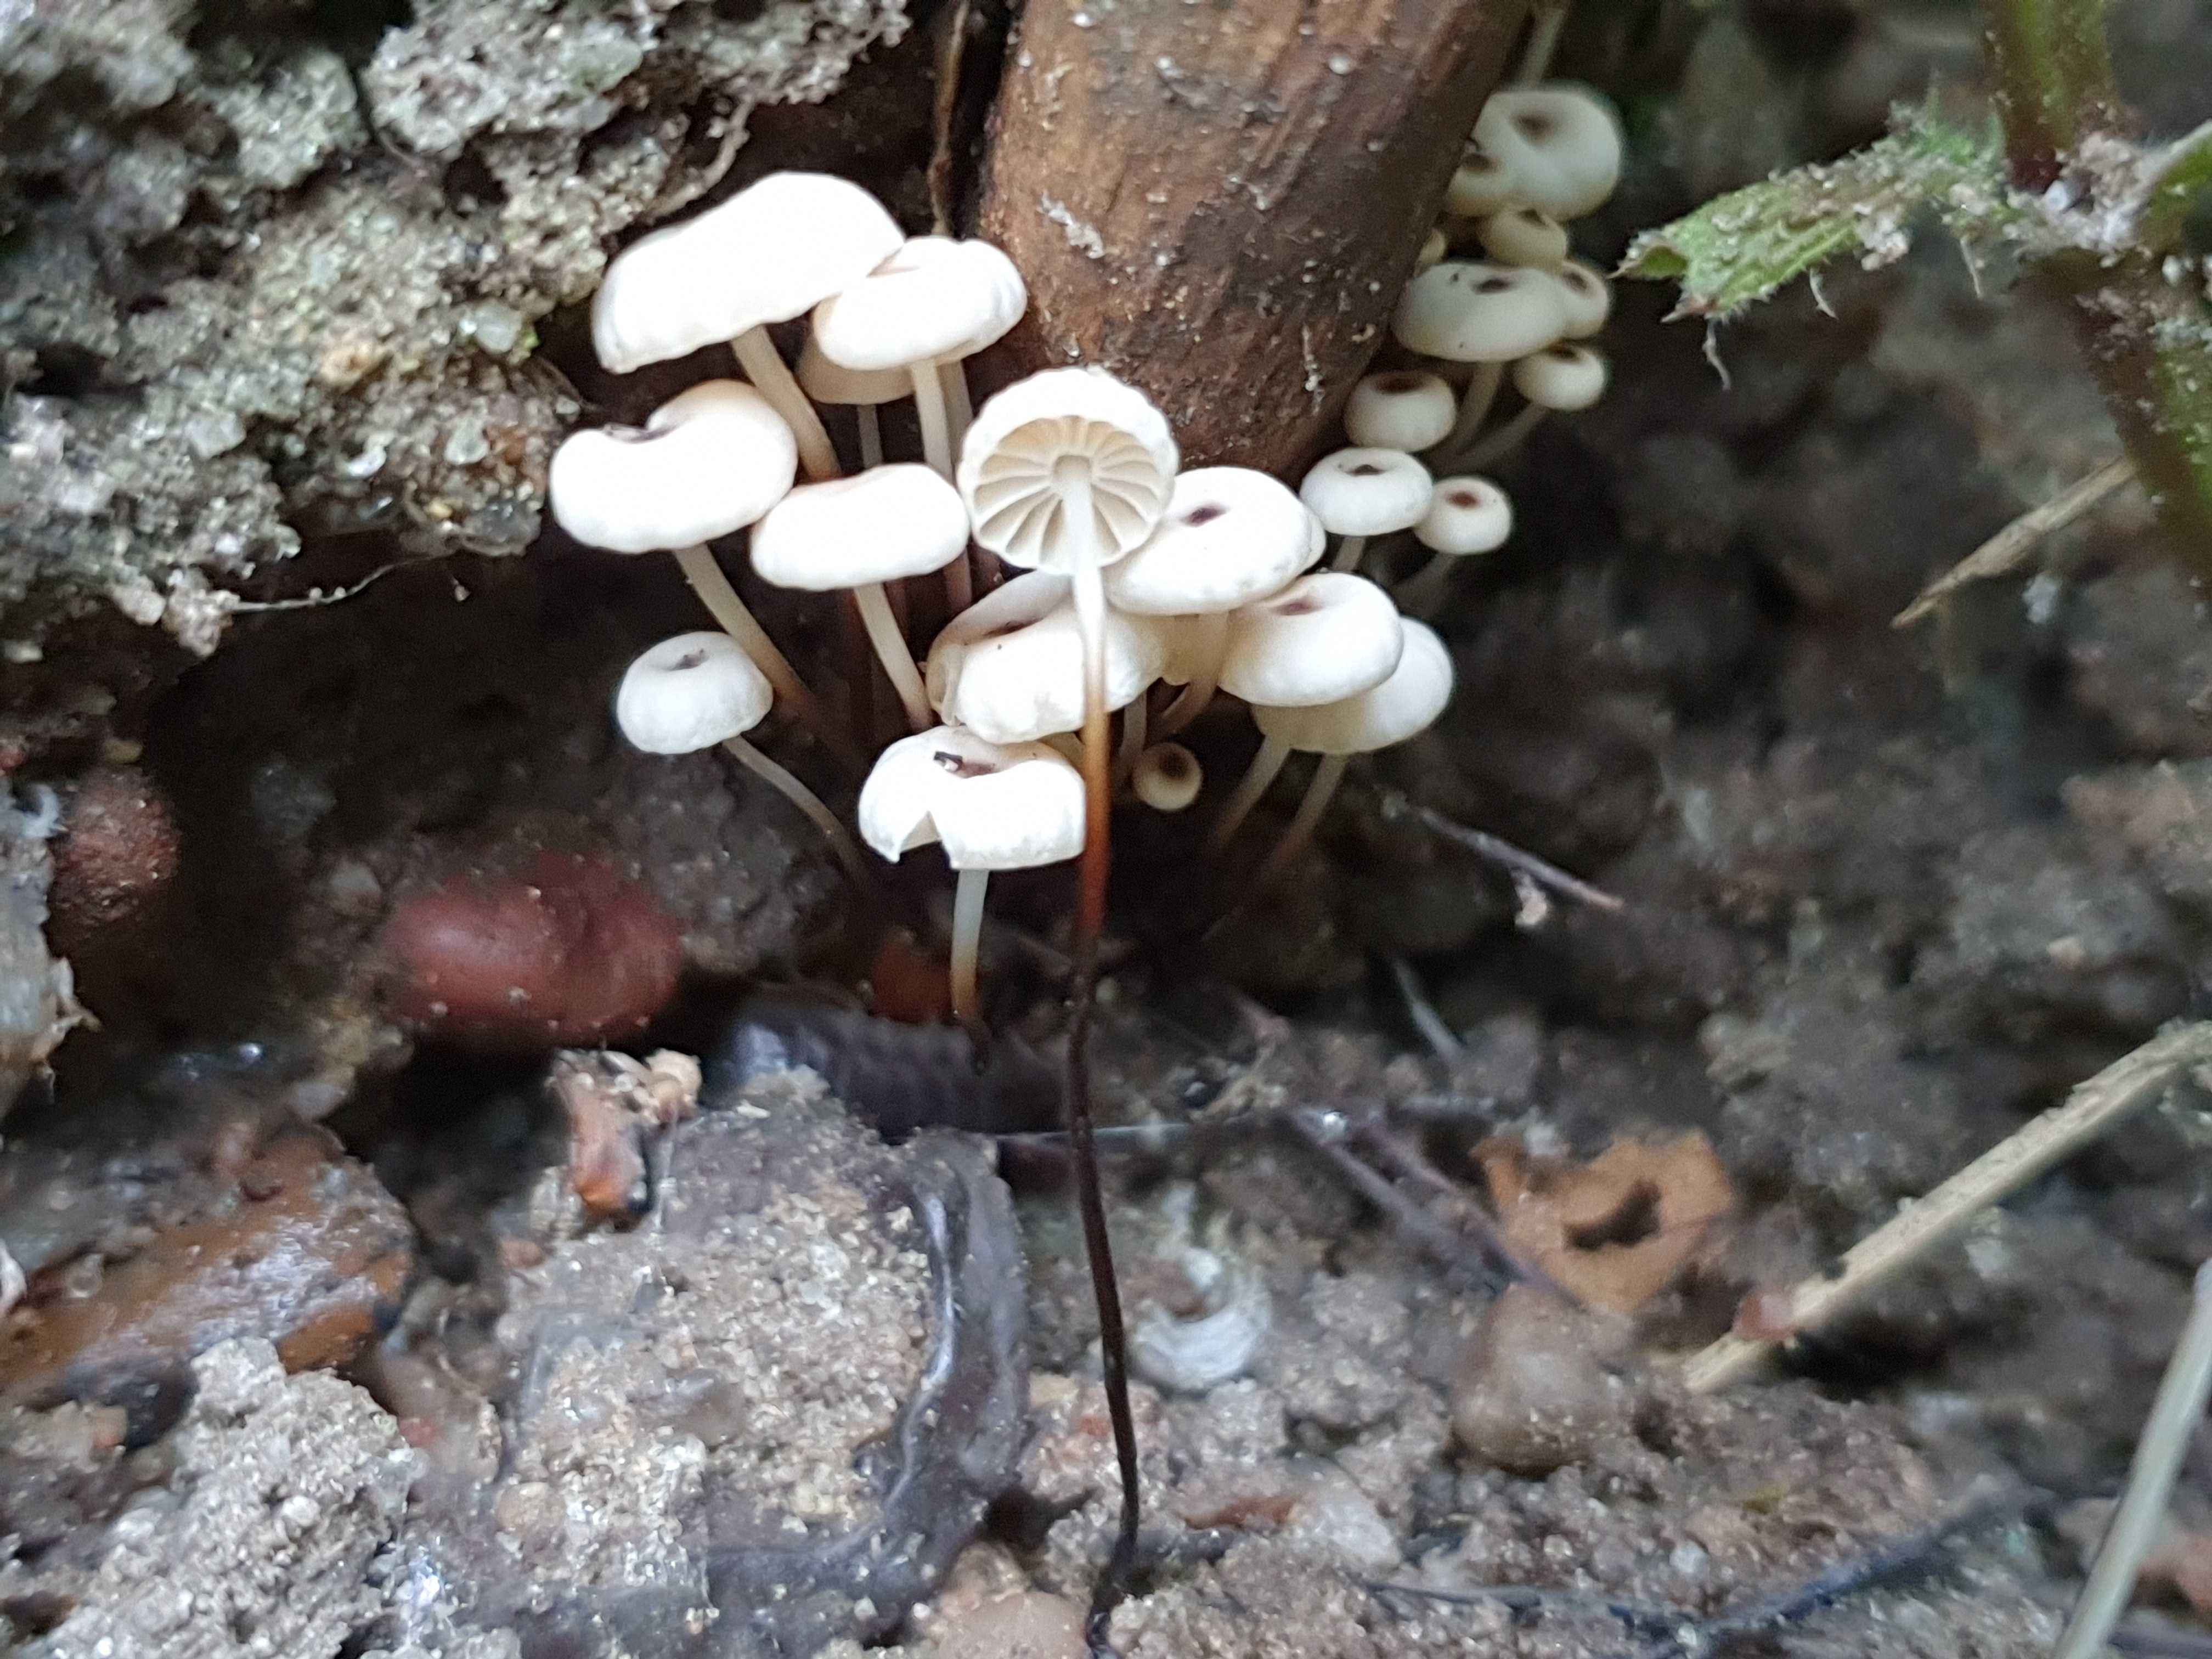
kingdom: Fungi
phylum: Basidiomycota
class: Agaricomycetes
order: Agaricales
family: Marasmiaceae
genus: Marasmius
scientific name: Marasmius rotula
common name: hjul-bruskhat
